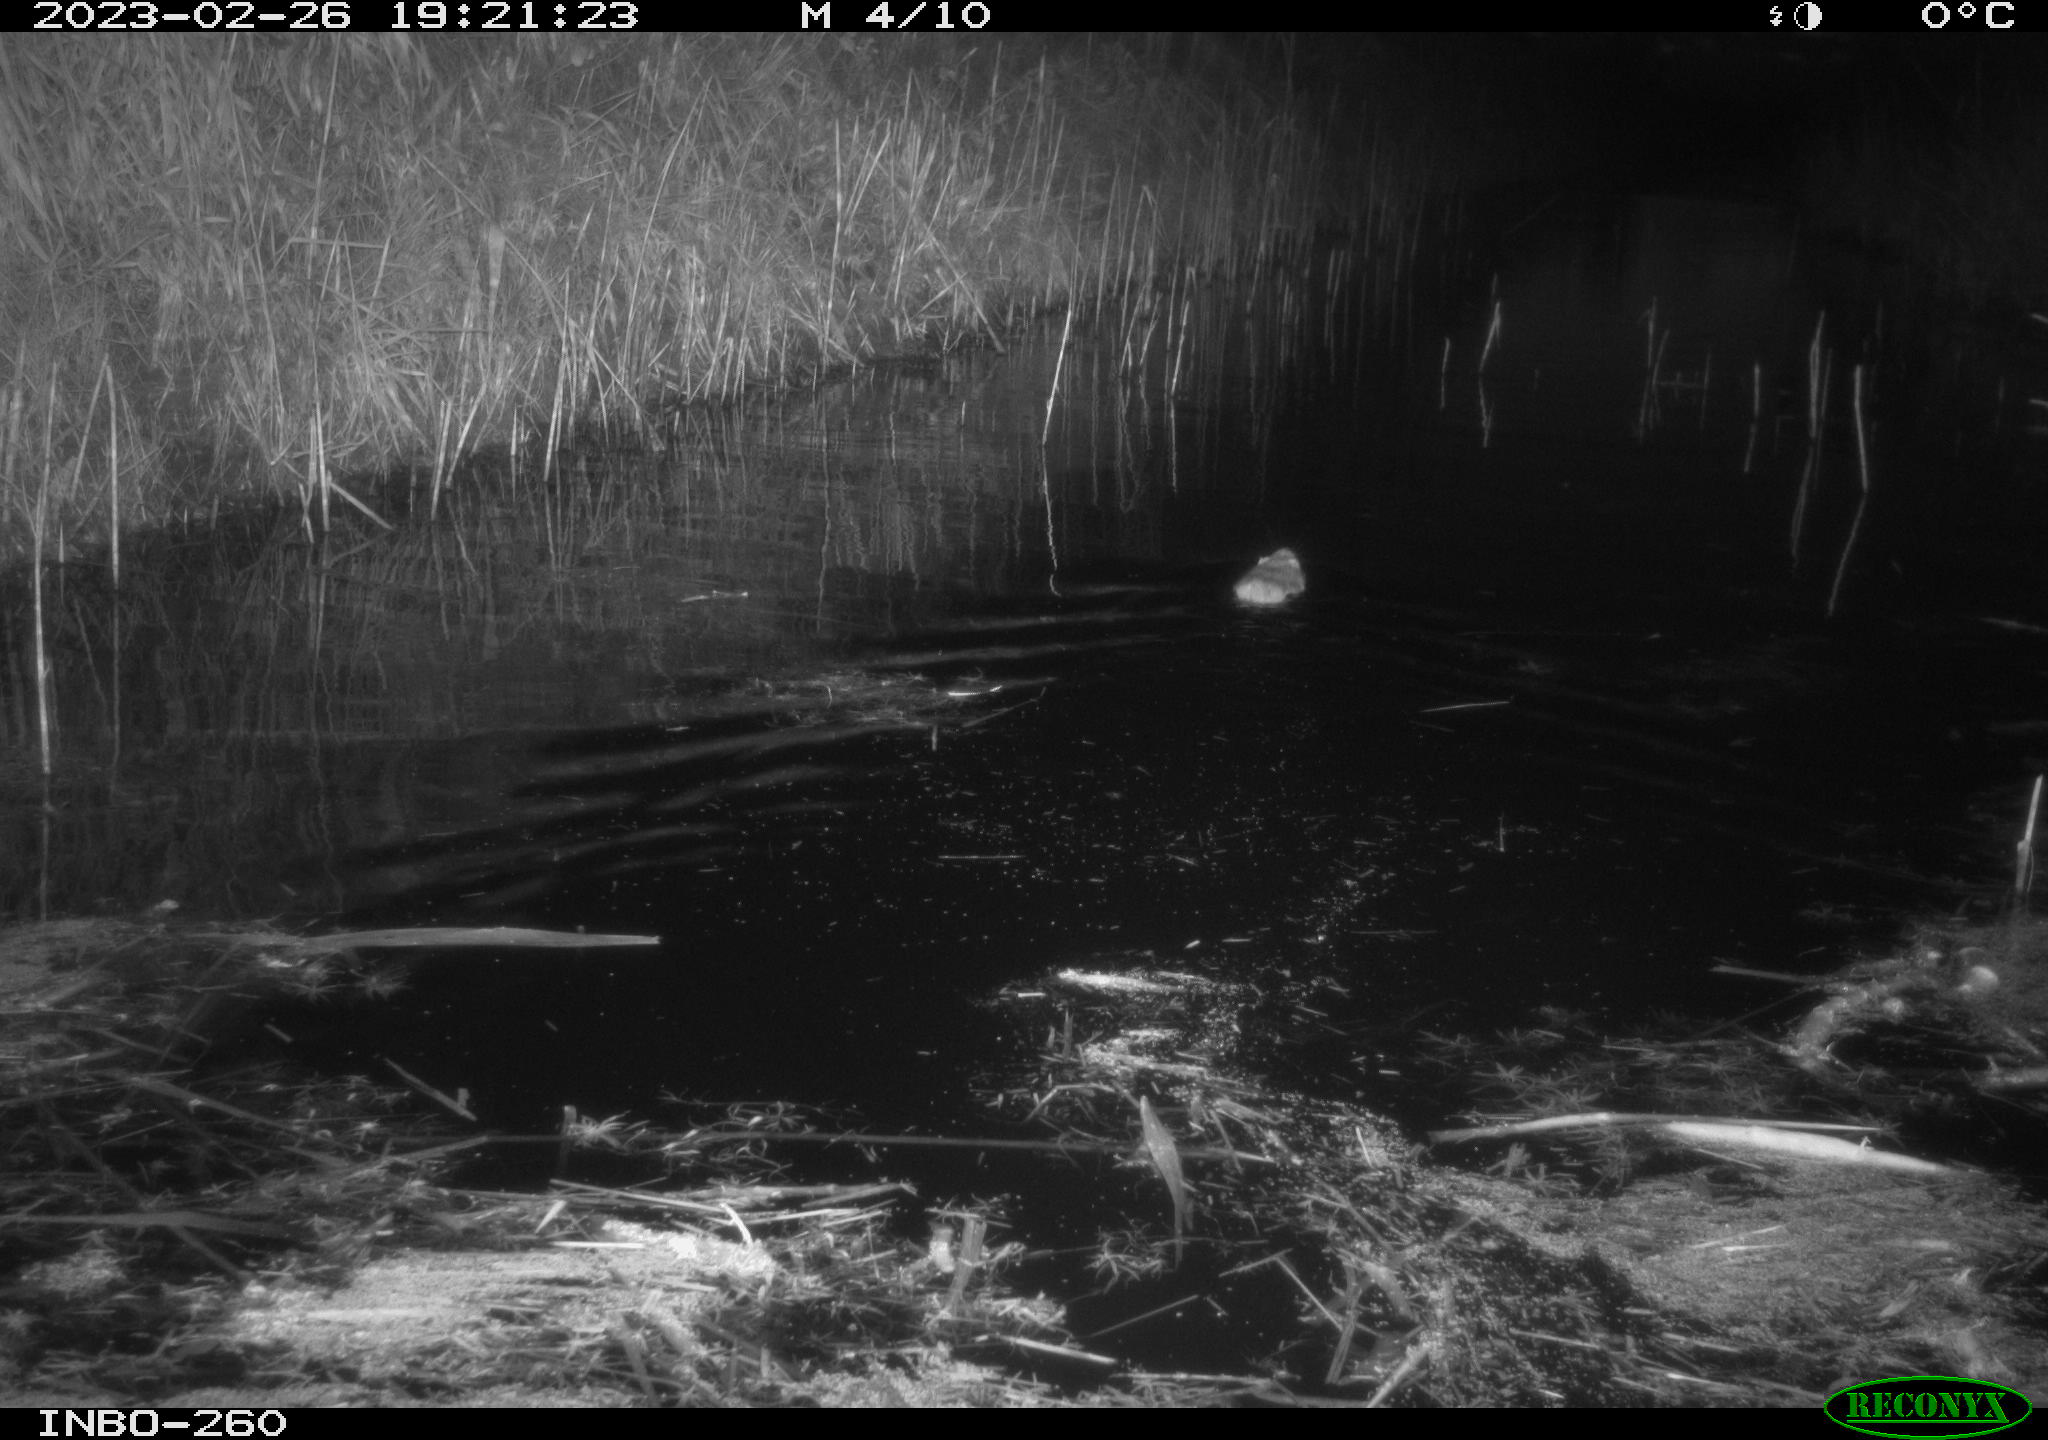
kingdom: Animalia
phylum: Chordata
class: Mammalia
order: Rodentia
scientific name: Rodentia
